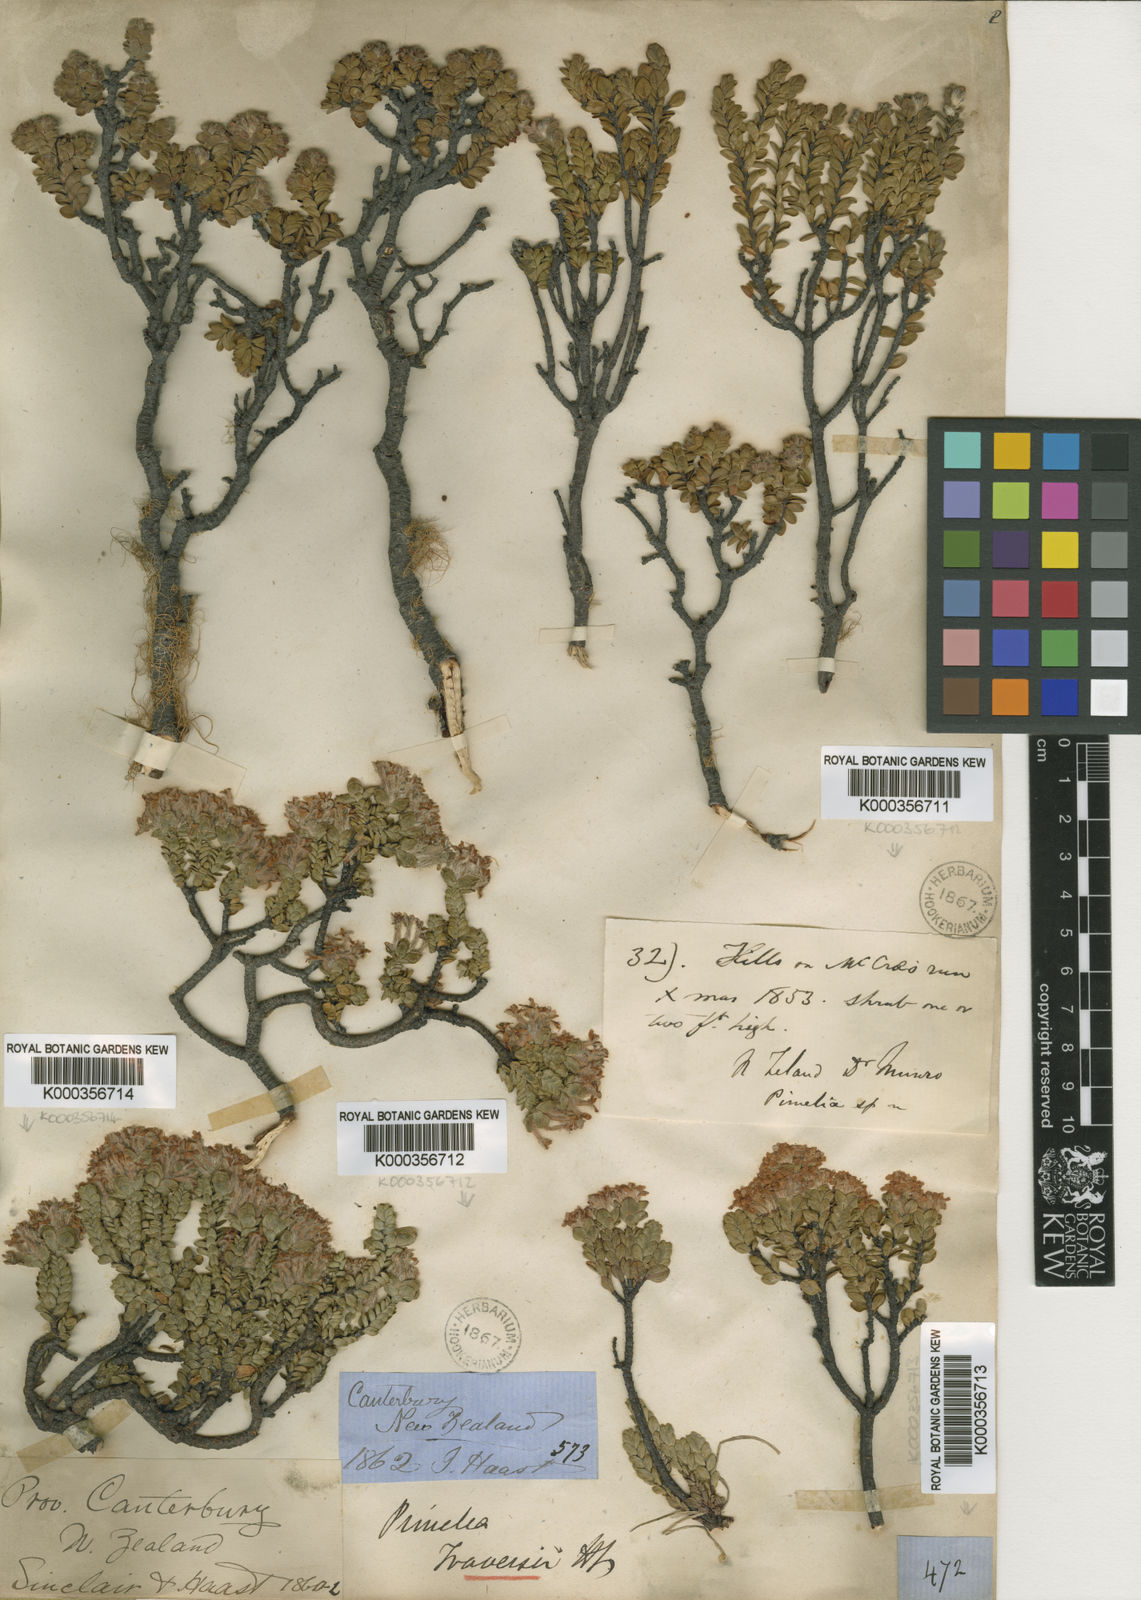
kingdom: Plantae
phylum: Tracheophyta
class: Magnoliopsida
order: Malvales
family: Thymelaeaceae
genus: Pimelea
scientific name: Pimelea traversii
